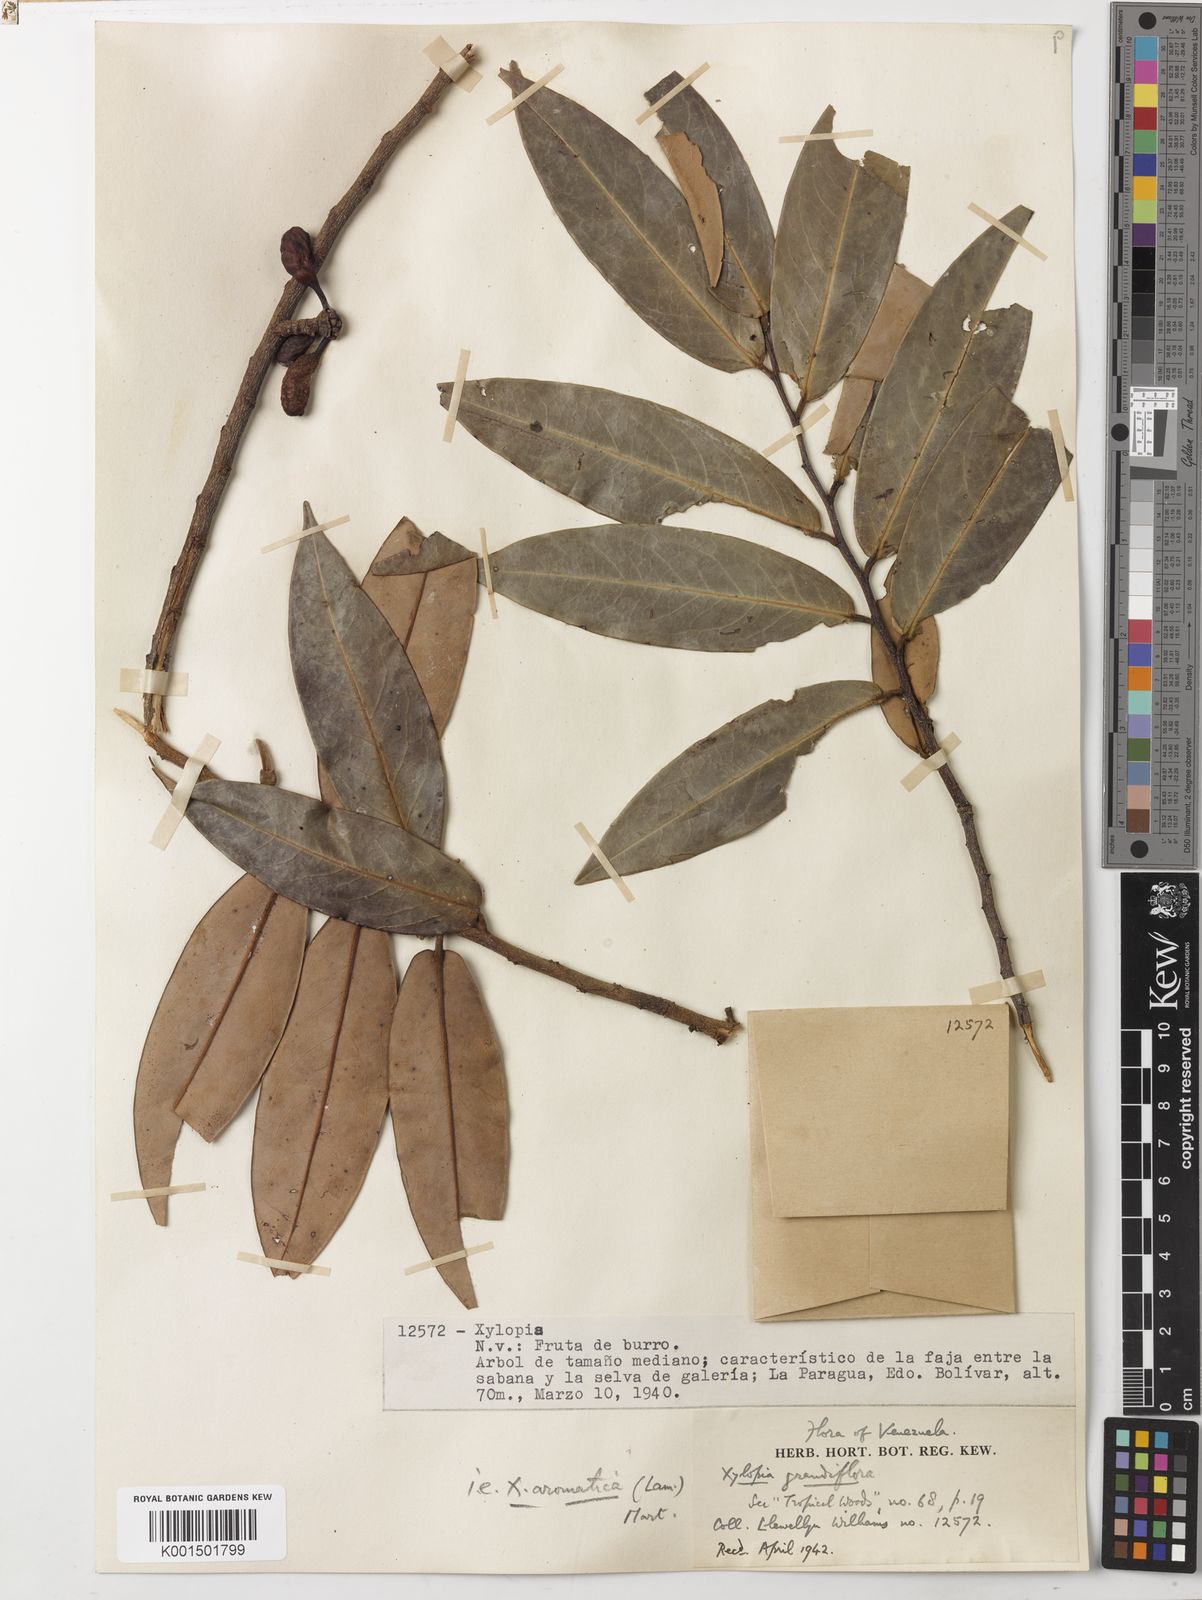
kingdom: Plantae
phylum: Tracheophyta
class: Magnoliopsida
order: Magnoliales
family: Annonaceae
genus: Xylopia
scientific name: Xylopia aromatica
